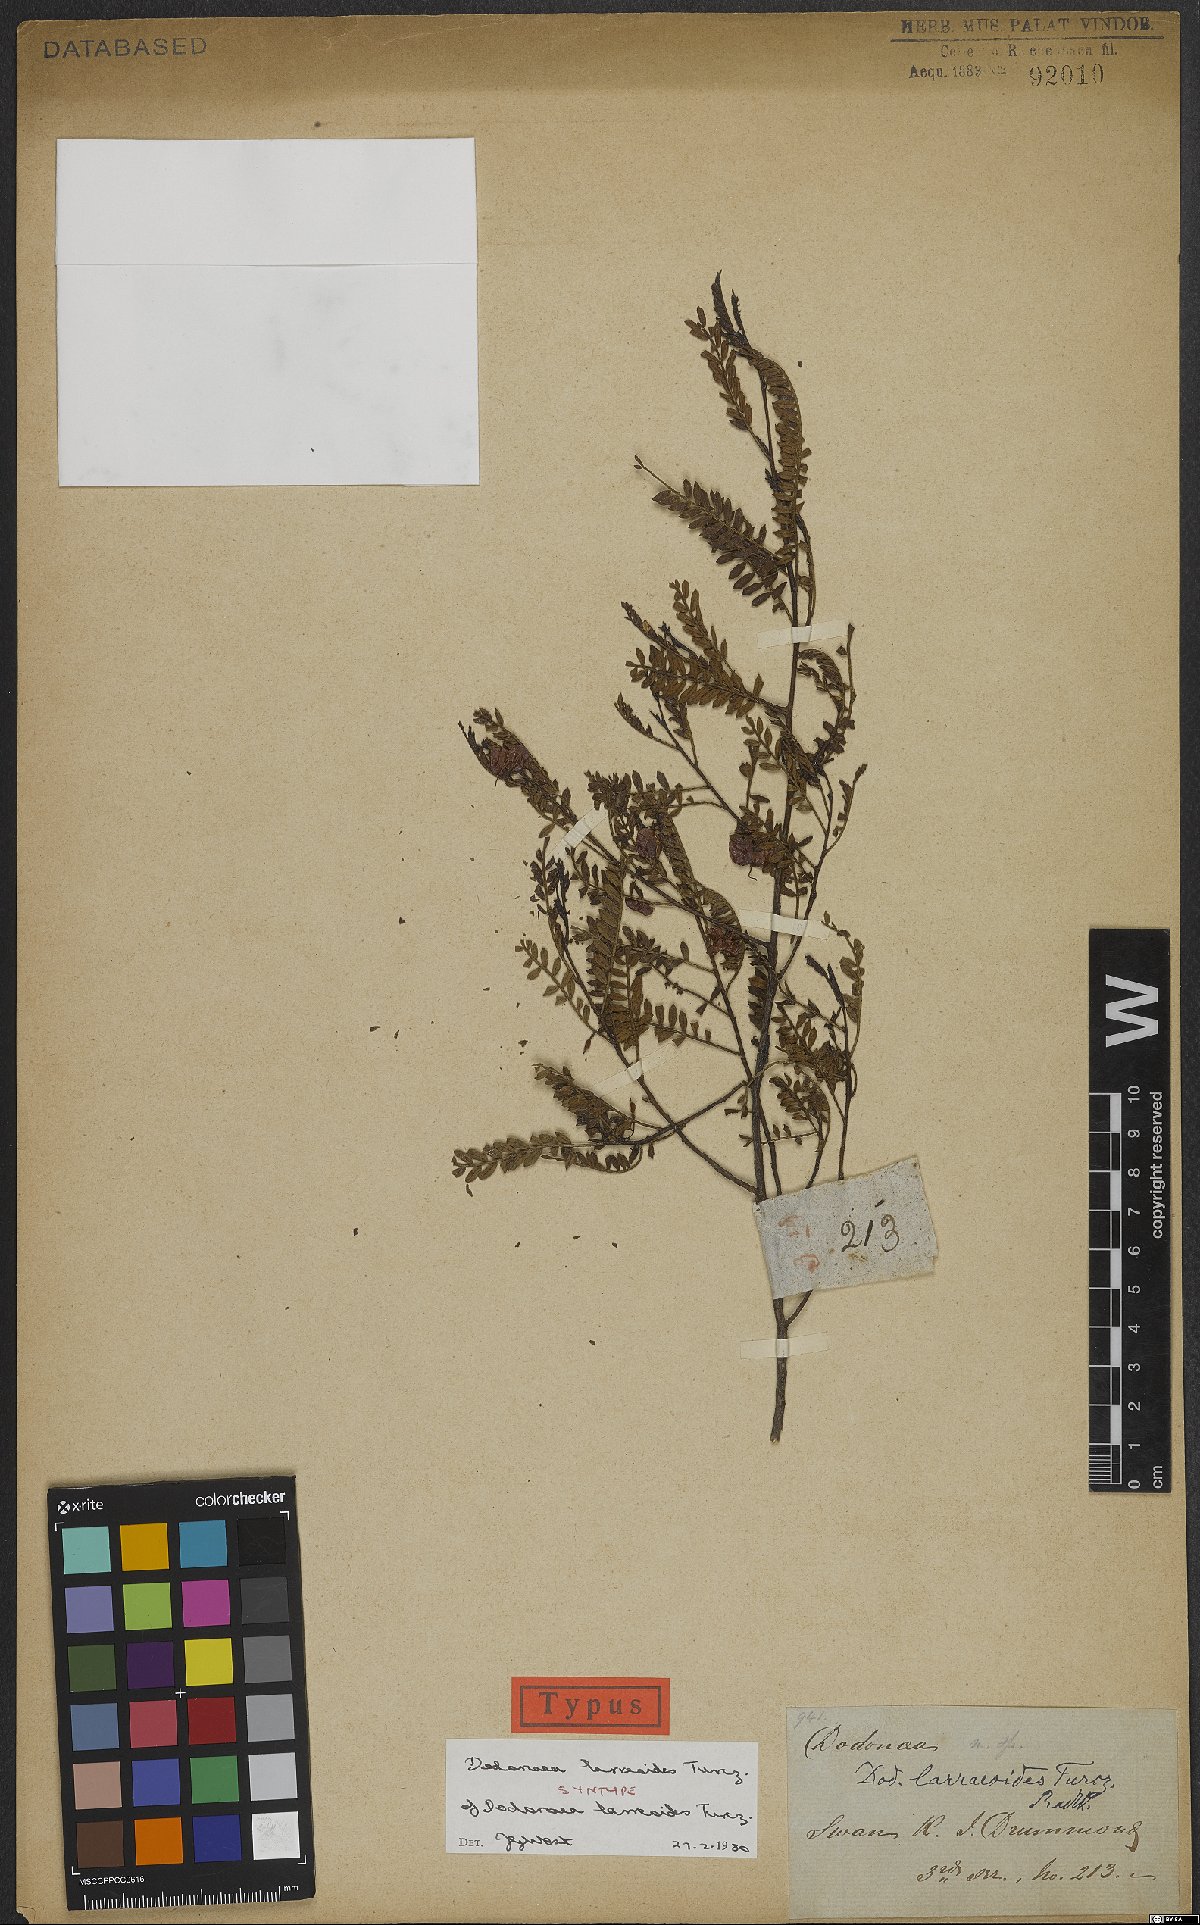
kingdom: Plantae
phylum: Tracheophyta
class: Magnoliopsida
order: Sapindales
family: Sapindaceae
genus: Dodonaea
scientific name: Dodonaea larreoides
